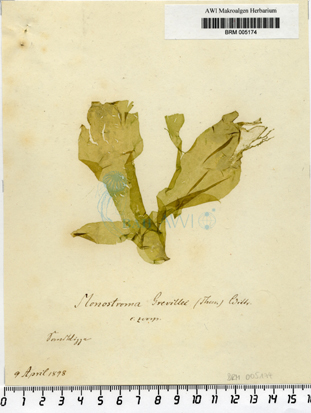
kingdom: Plantae
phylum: Chlorophyta
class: Ulvophyceae
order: Ulvales
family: Monostromataceae
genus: Monostroma
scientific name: Monostroma grevillei
